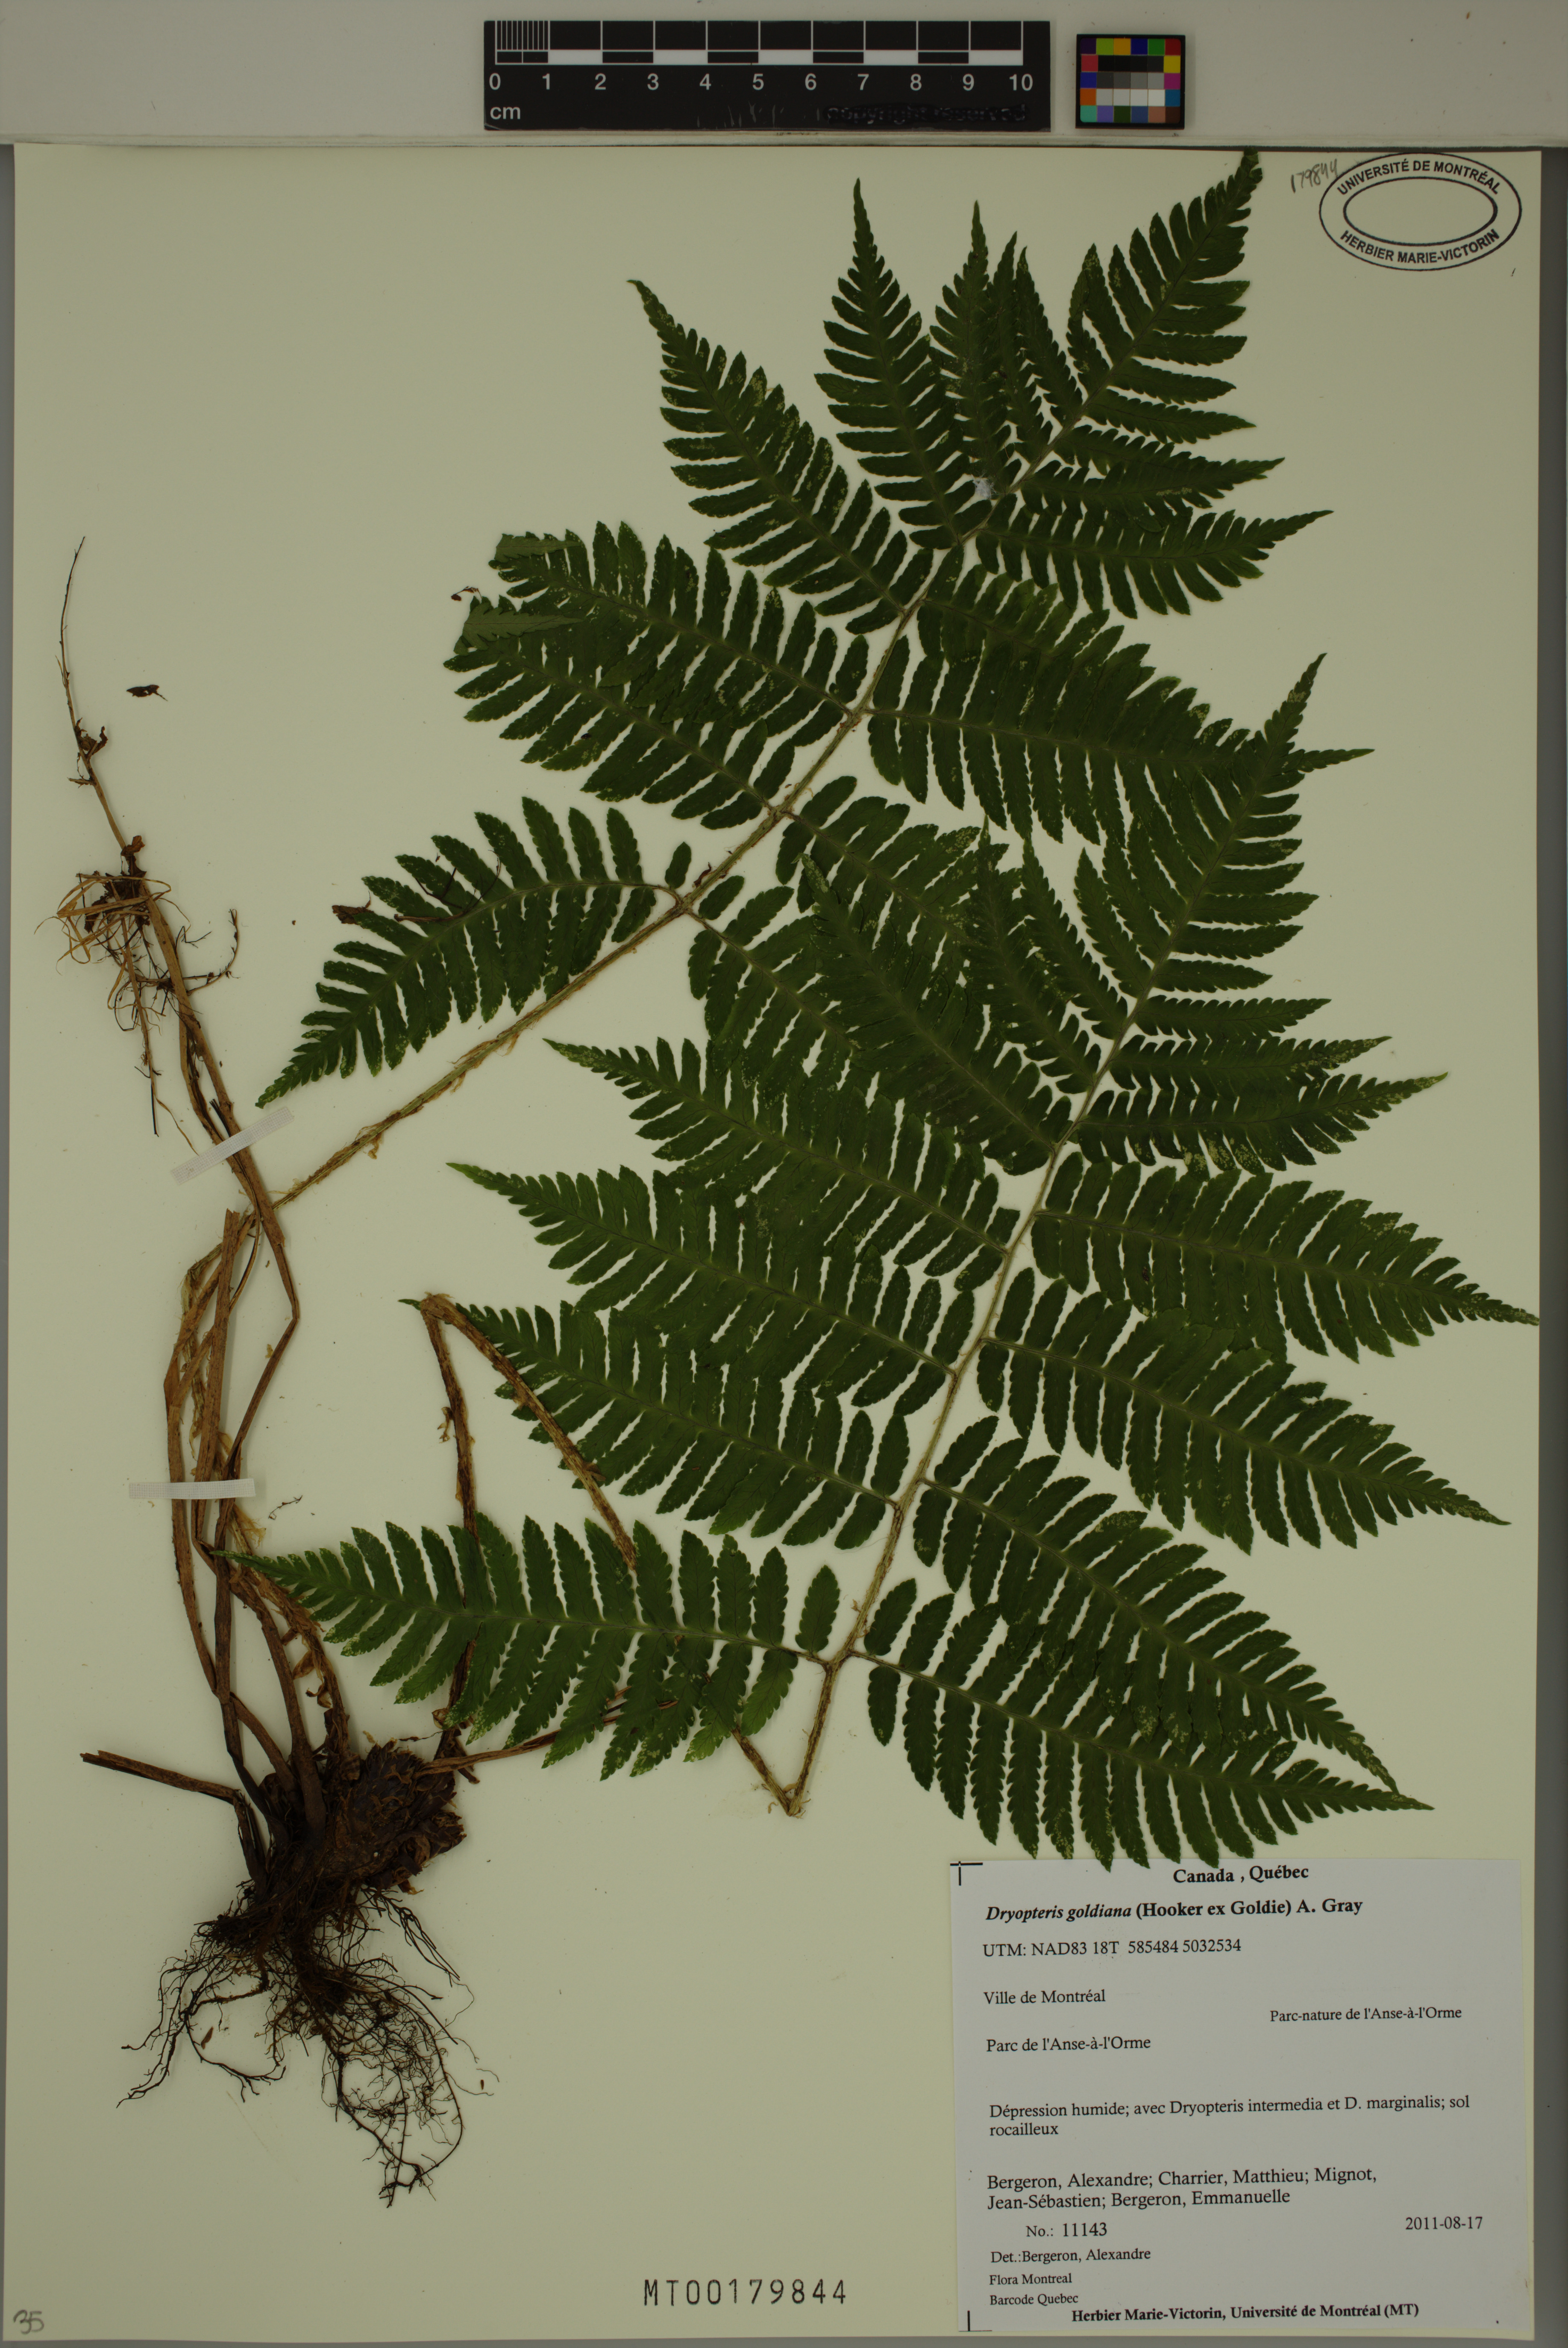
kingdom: Plantae
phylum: Tracheophyta
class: Polypodiopsida
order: Polypodiales
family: Dryopteridaceae
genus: Dryopteris
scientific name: Dryopteris goldieana
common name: Goldie's fern
